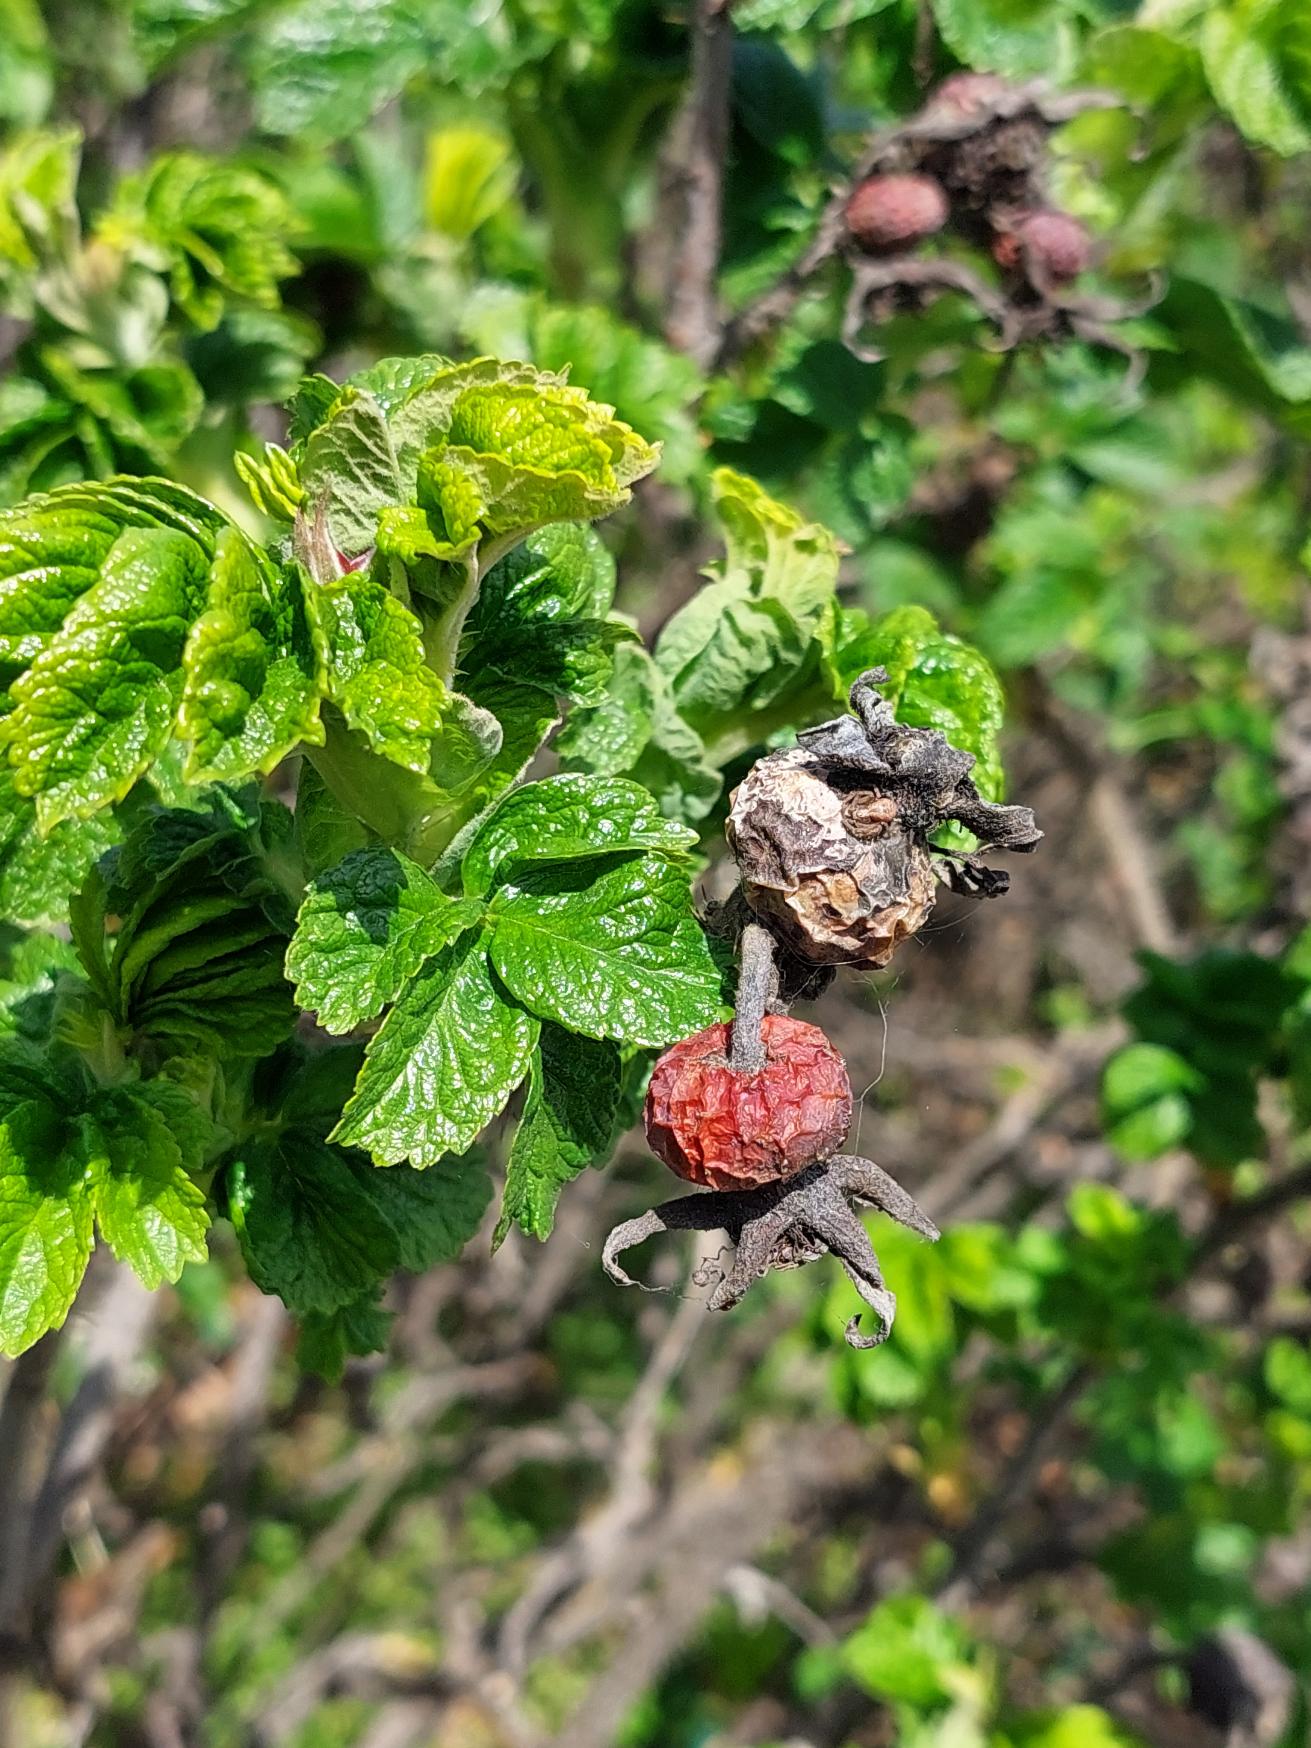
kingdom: Plantae
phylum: Tracheophyta
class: Magnoliopsida
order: Rosales
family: Rosaceae
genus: Rosa
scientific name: Rosa rugosa
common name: Rynket rose
